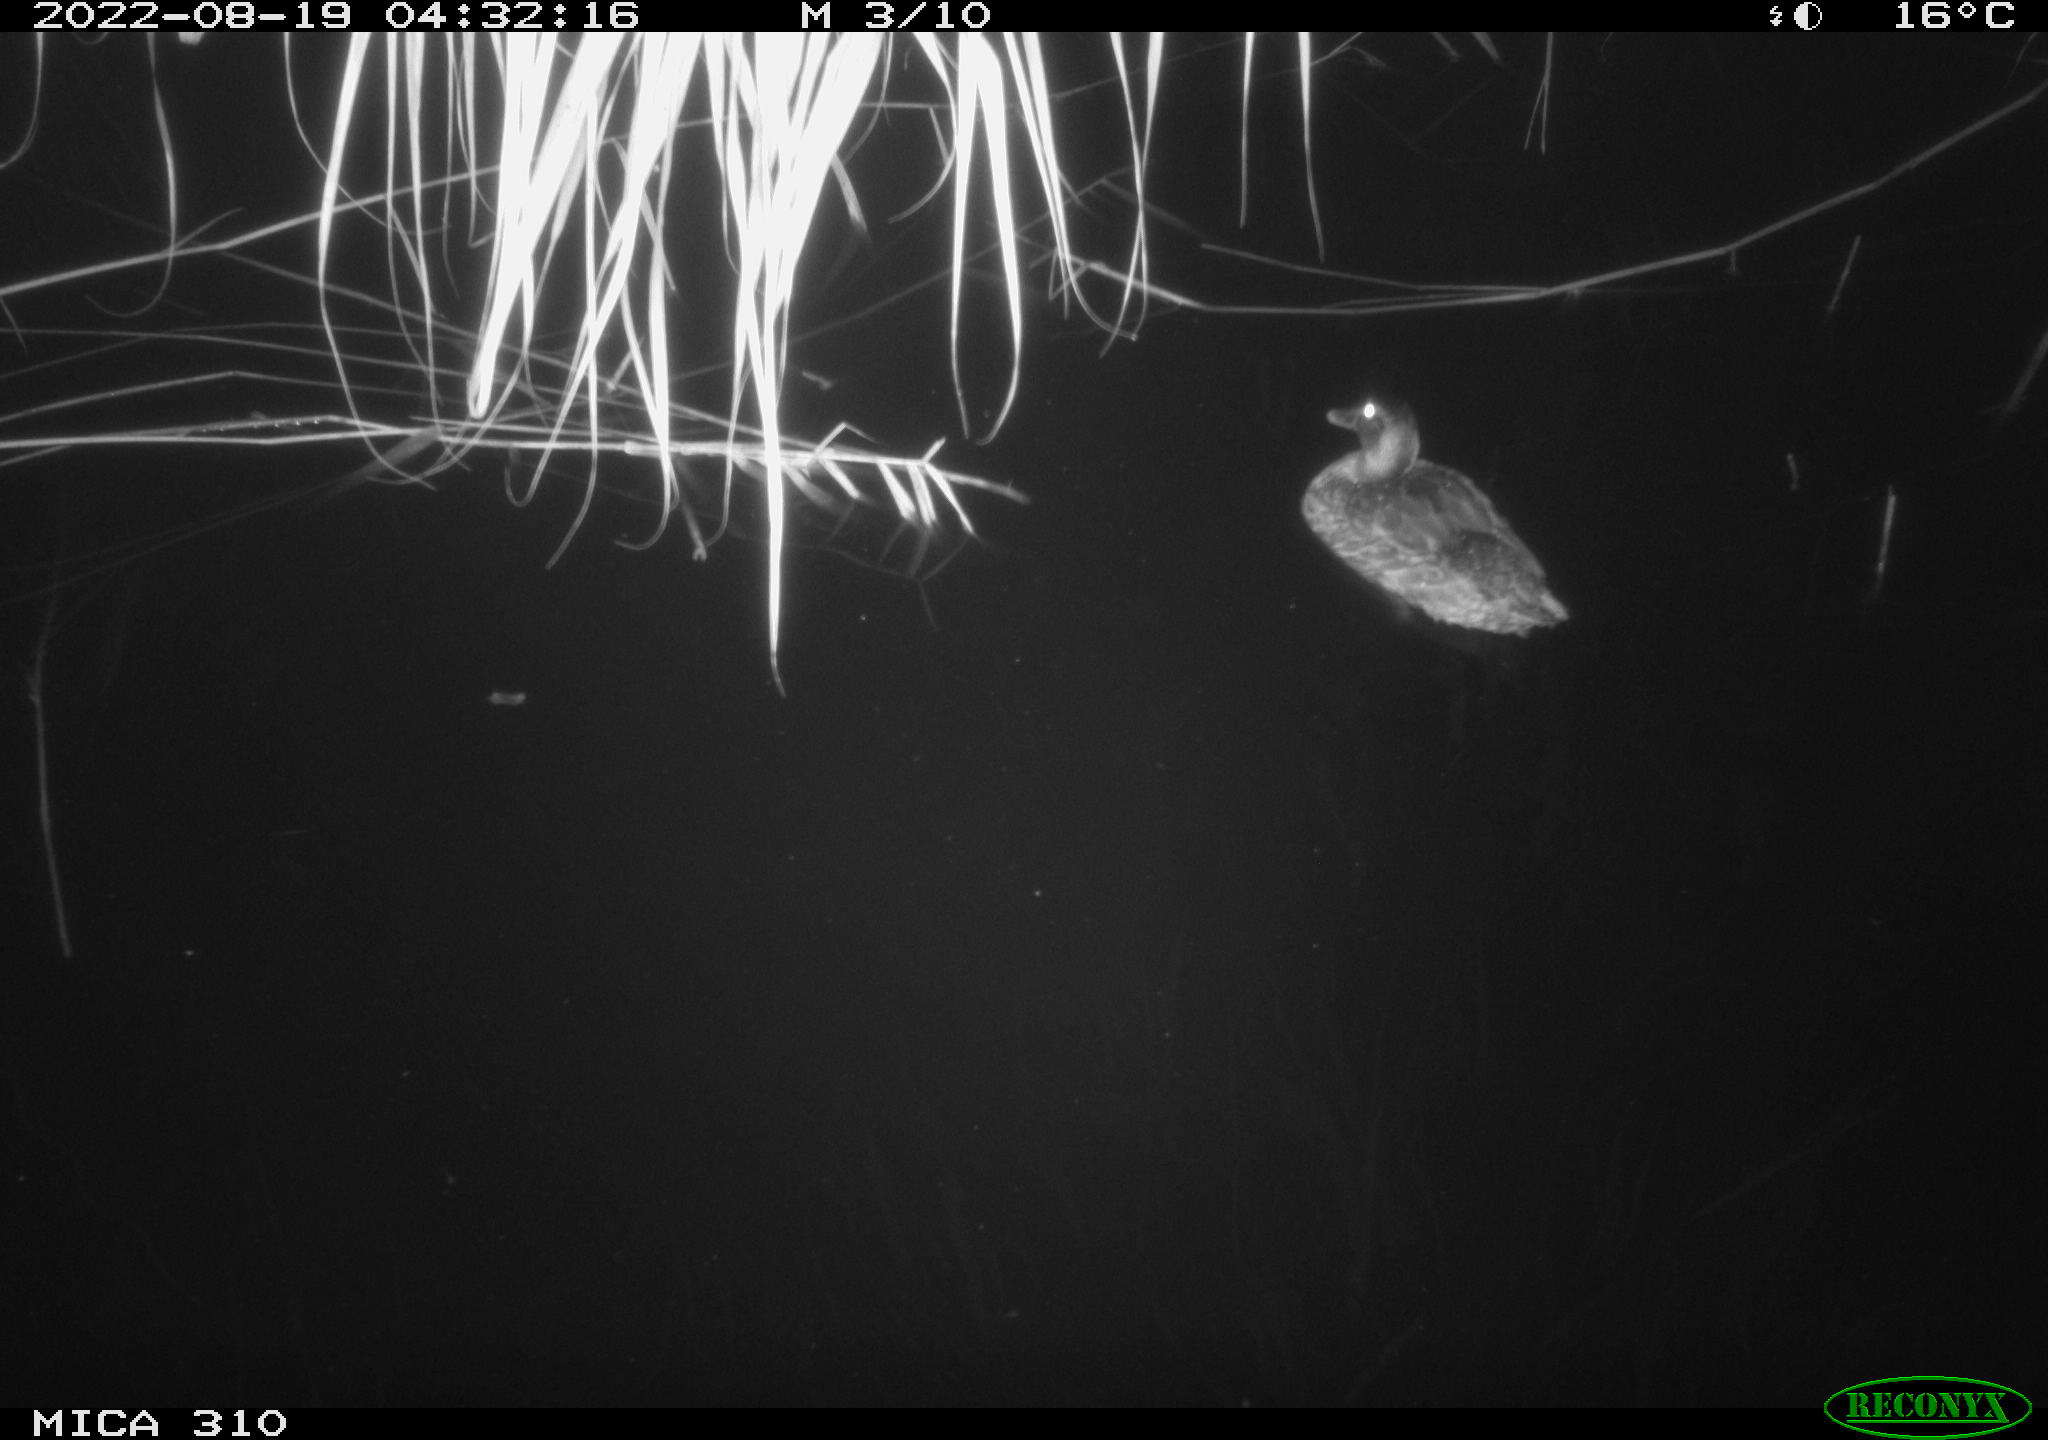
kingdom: Animalia
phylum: Chordata
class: Aves
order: Anseriformes
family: Anatidae
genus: Anas
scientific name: Anas platyrhynchos
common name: Mallard
